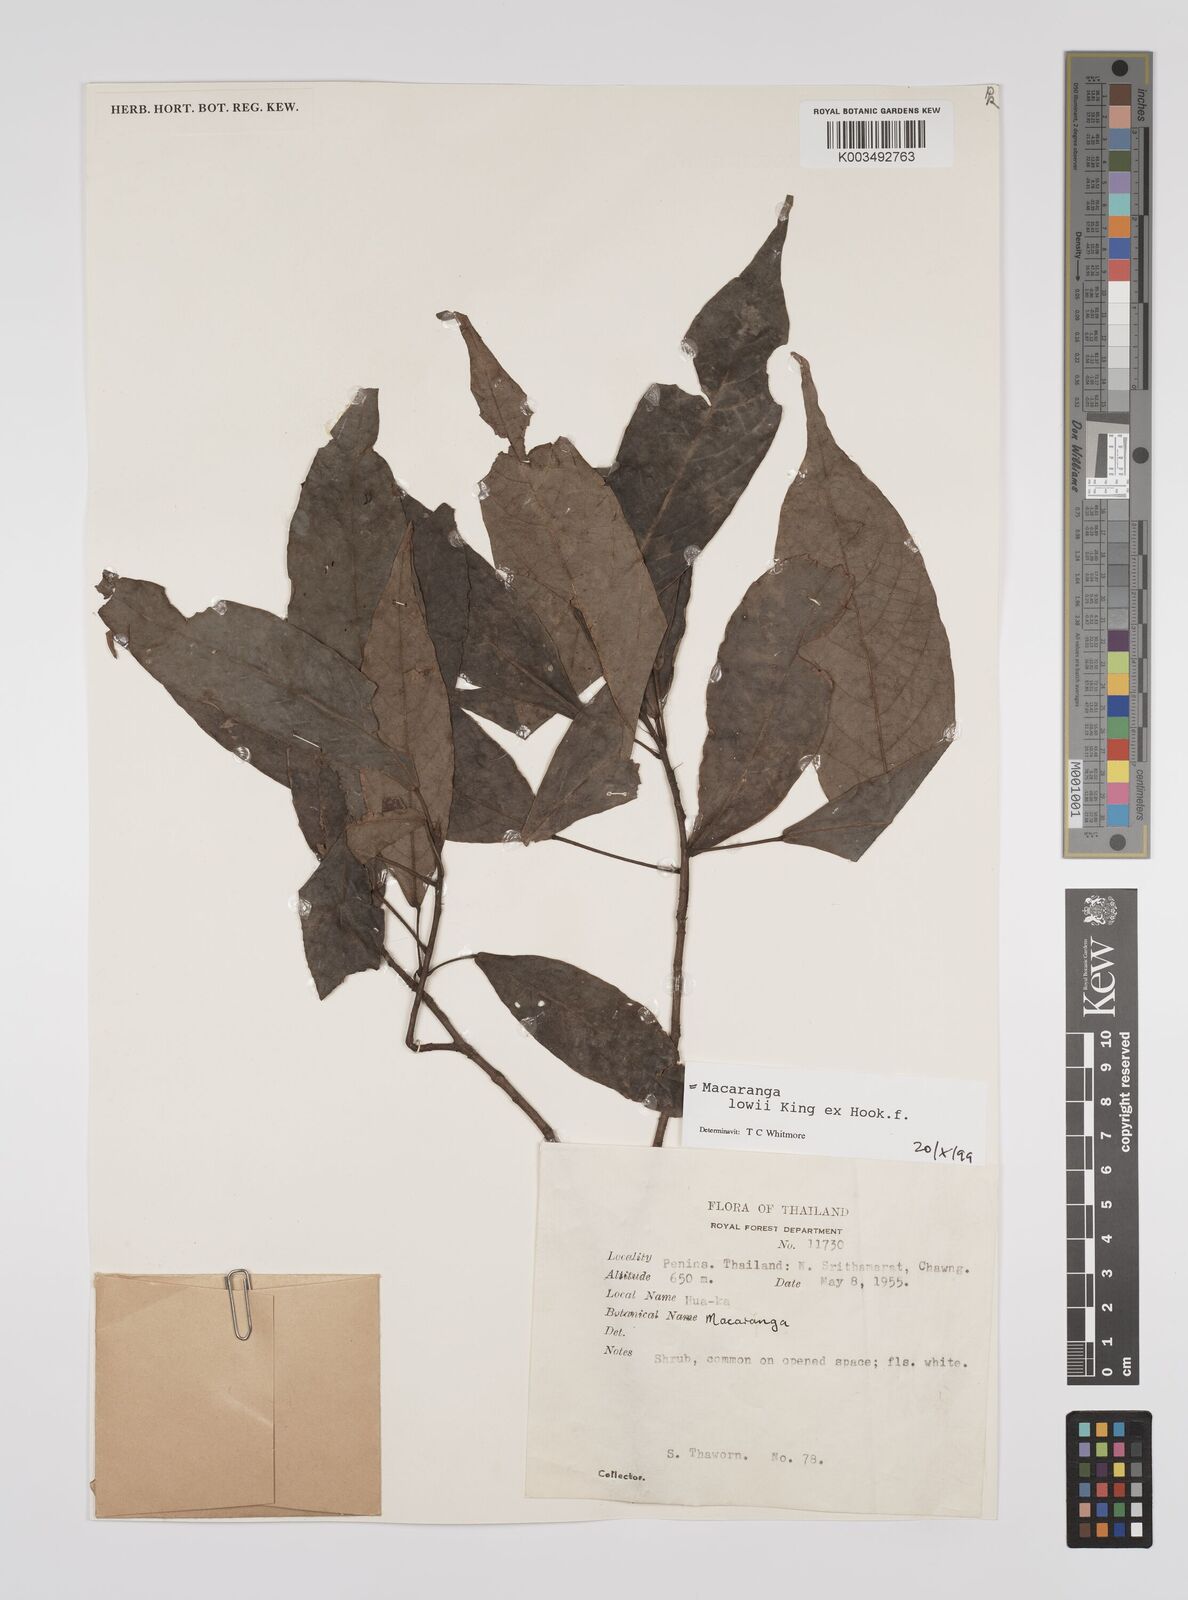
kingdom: Plantae
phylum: Tracheophyta
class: Magnoliopsida
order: Malpighiales
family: Euphorbiaceae
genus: Macaranga
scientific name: Macaranga lowii
